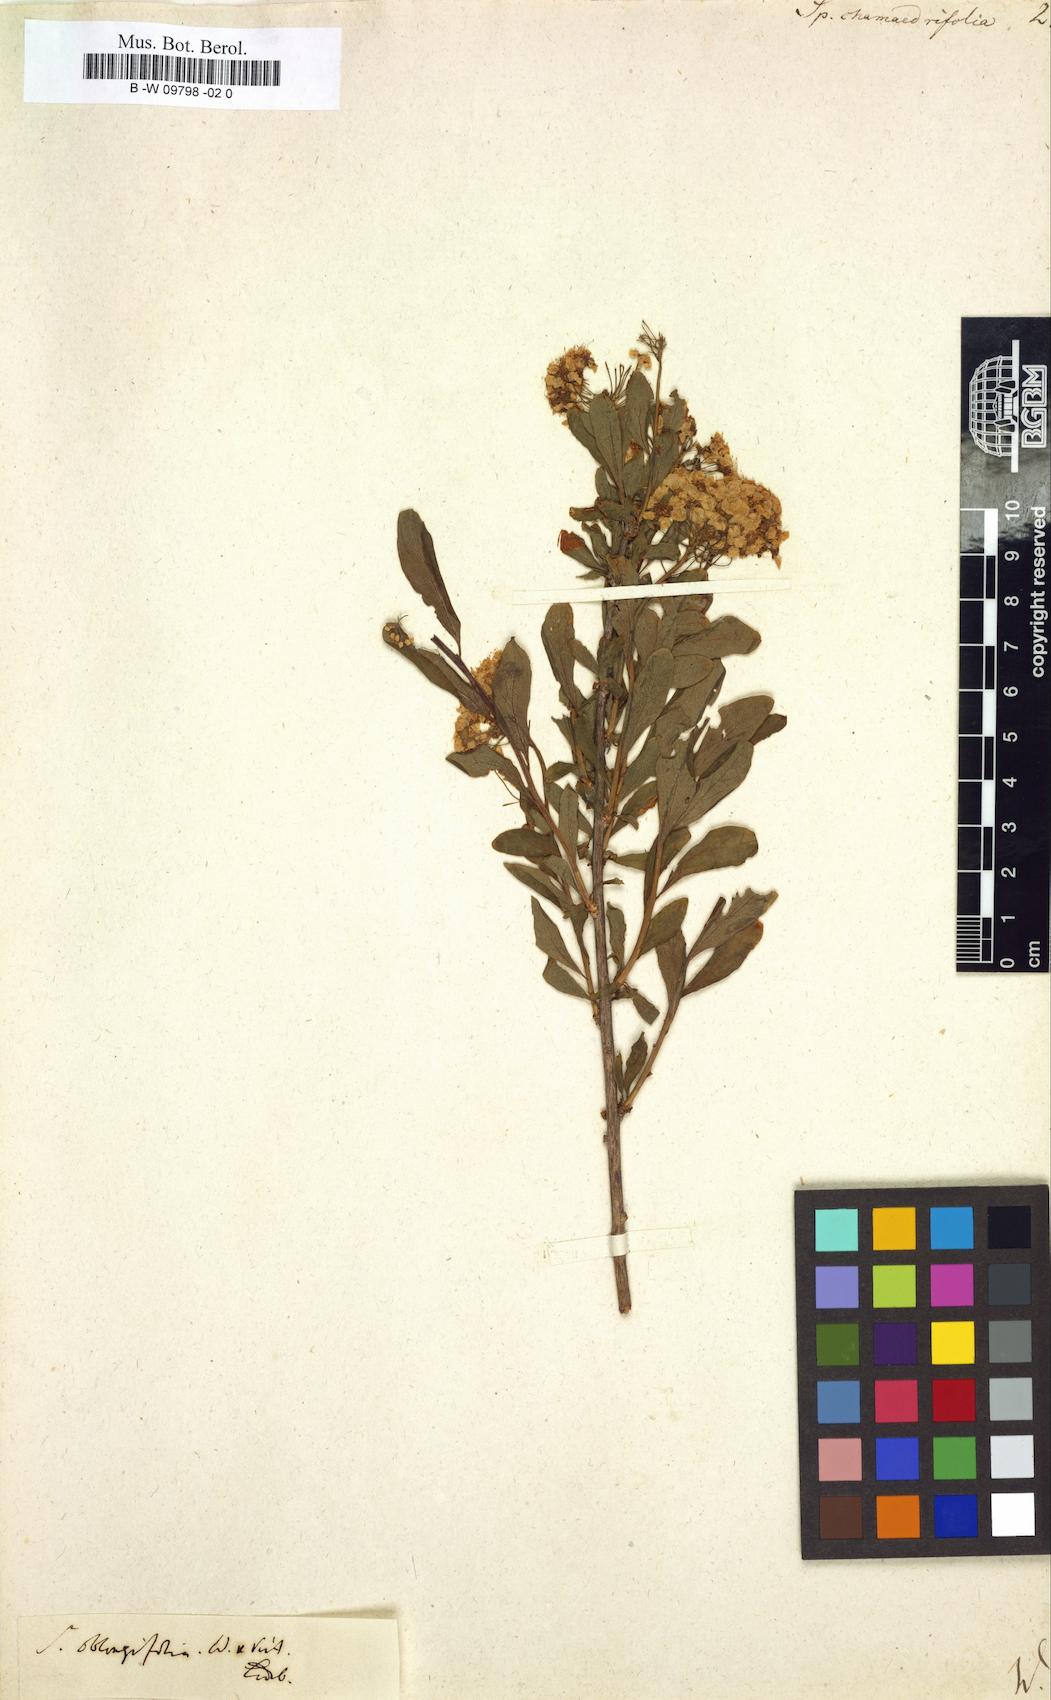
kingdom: Plantae
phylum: Tracheophyta
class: Magnoliopsida
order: Rosales
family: Rosaceae
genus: Spiraea
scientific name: Spiraea
